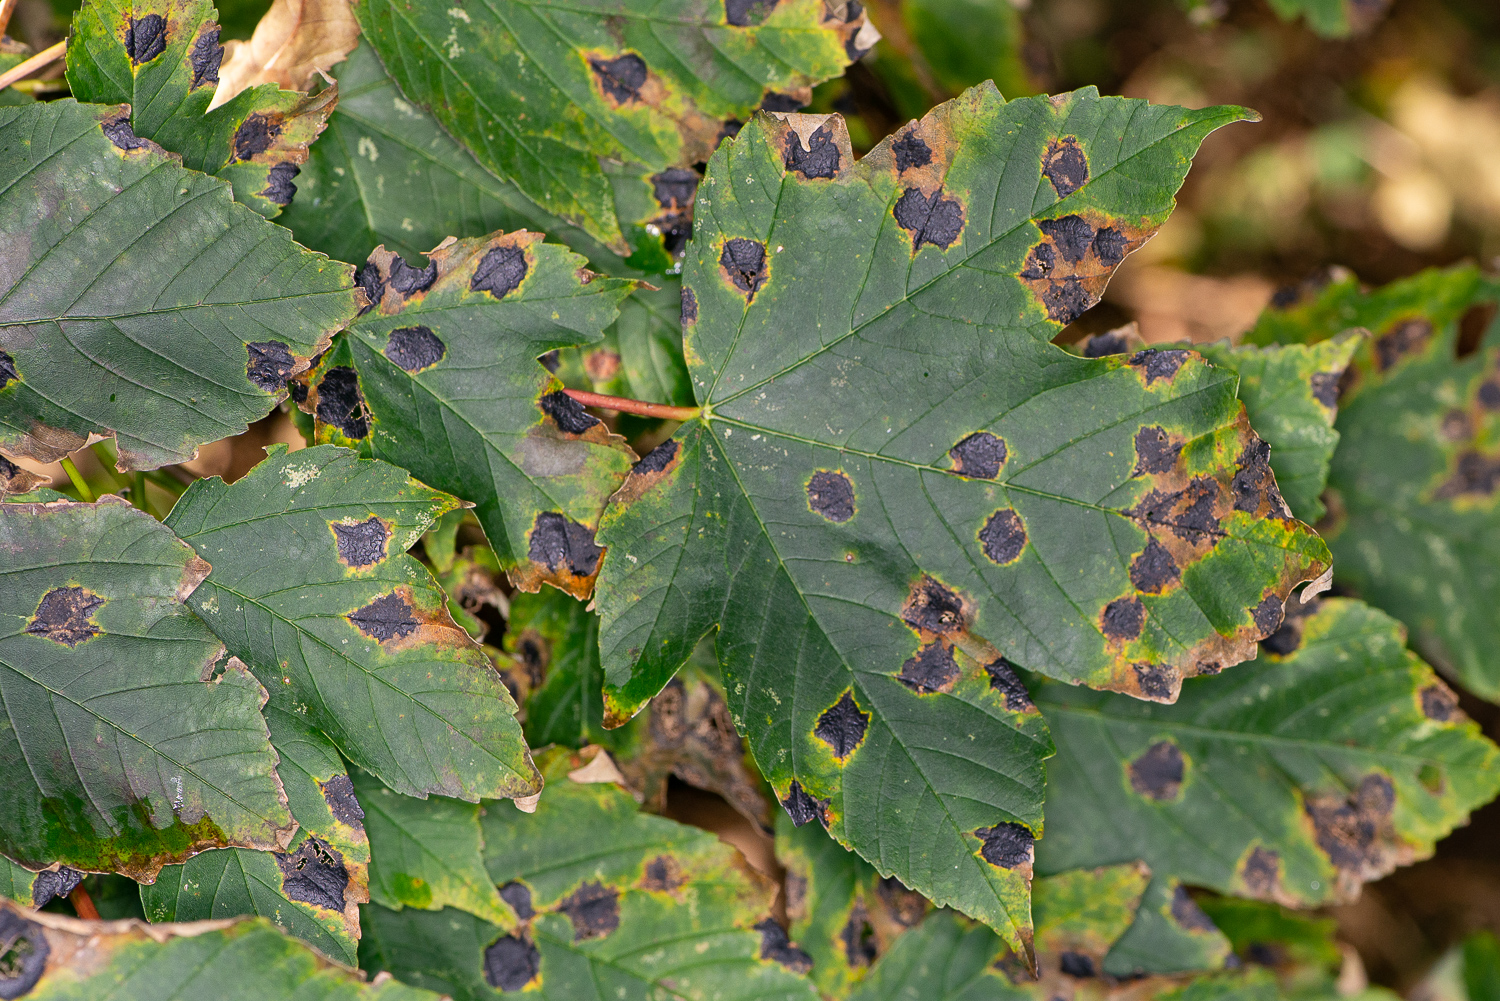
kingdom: Fungi
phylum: Ascomycota
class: Leotiomycetes
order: Rhytismatales
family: Rhytismataceae
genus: Rhytisma
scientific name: Rhytisma acerinum
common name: ahorn-rynkeplet
